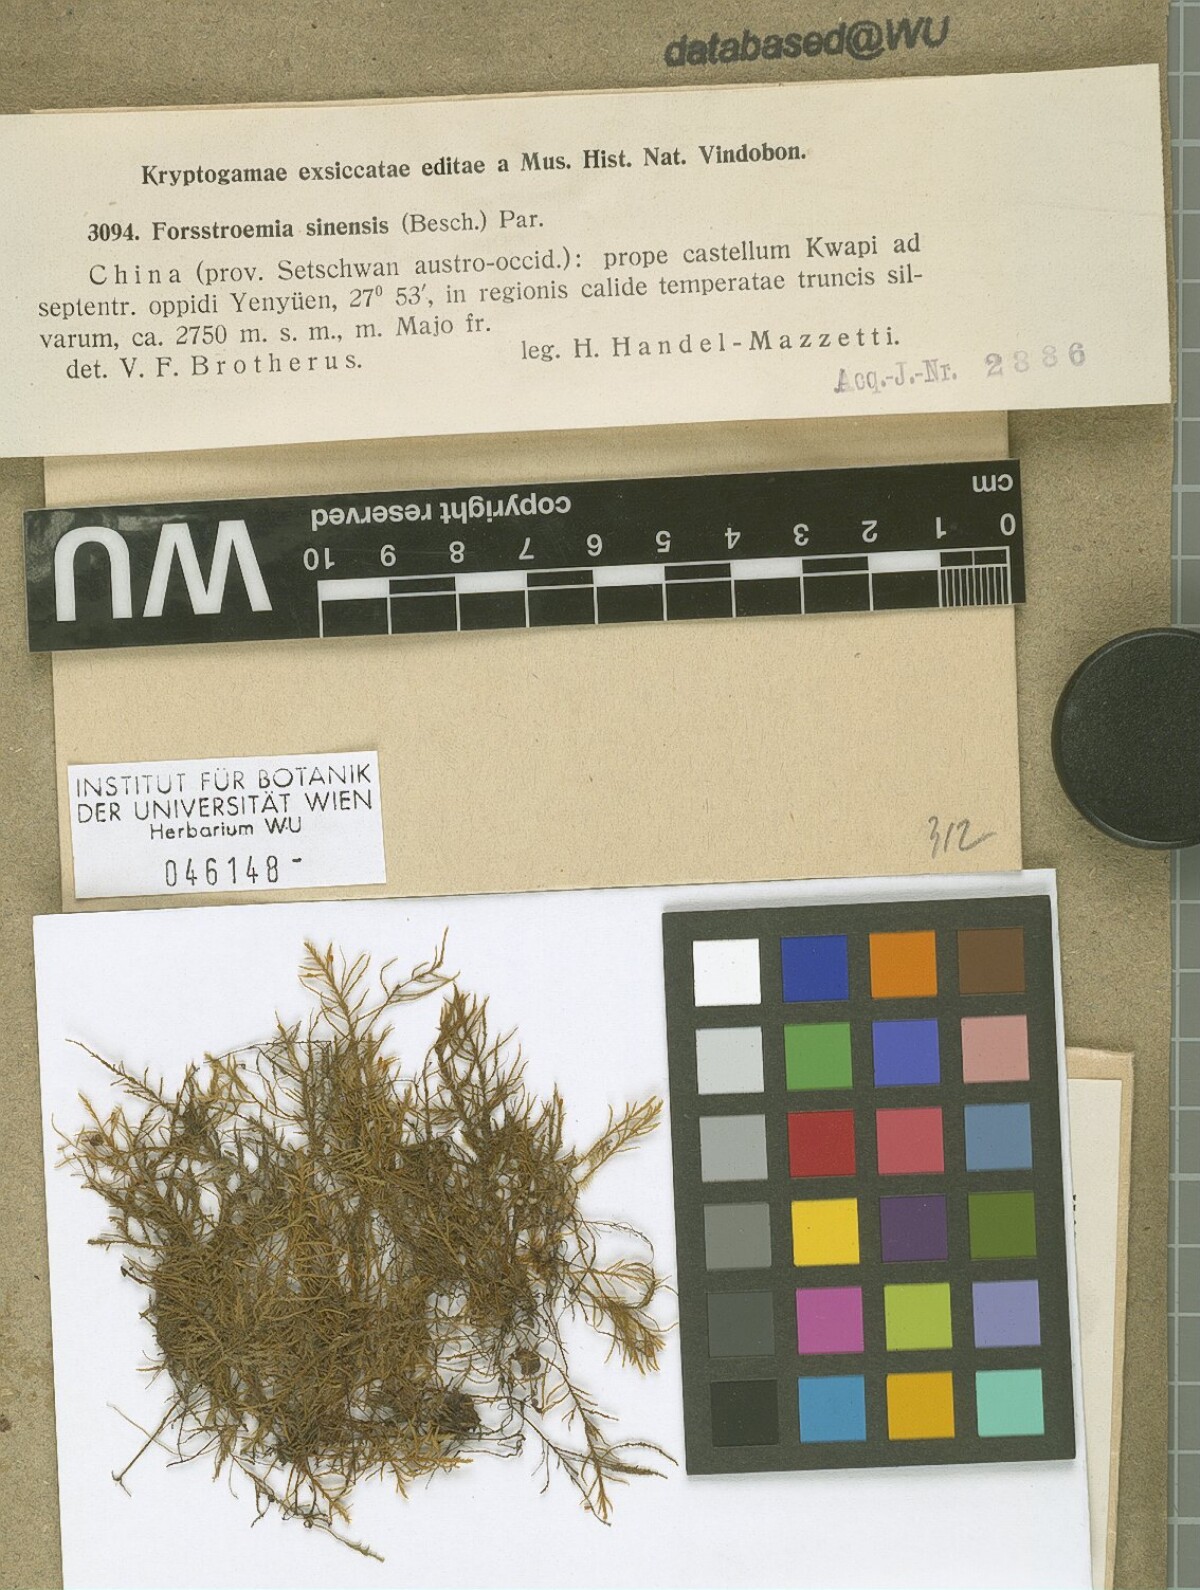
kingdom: Plantae
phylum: Bryophyta
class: Bryopsida
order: Hypnales
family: Neckeraceae
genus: Forsstroemia
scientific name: Forsstroemia producta
